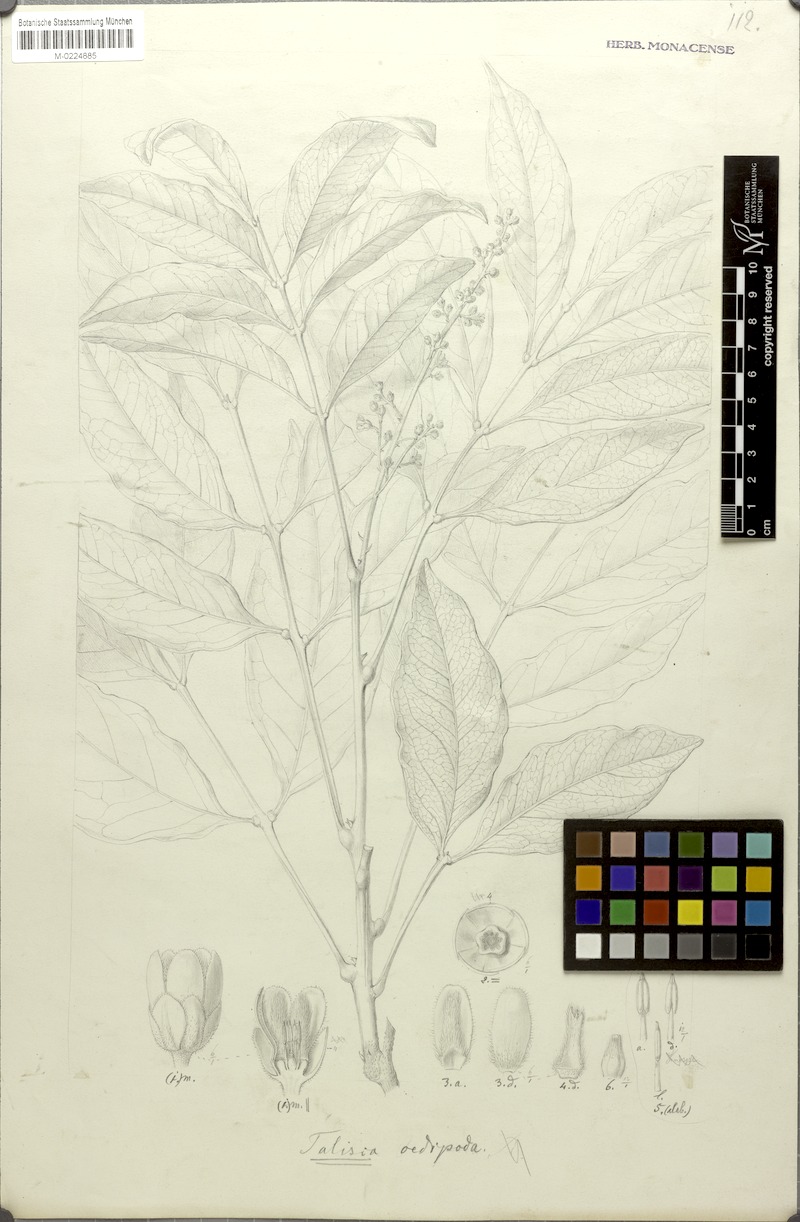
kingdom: Plantae
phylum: Tracheophyta
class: Magnoliopsida
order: Sapindales
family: Sapindaceae
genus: Talisia
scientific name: Talisia oedipoda
